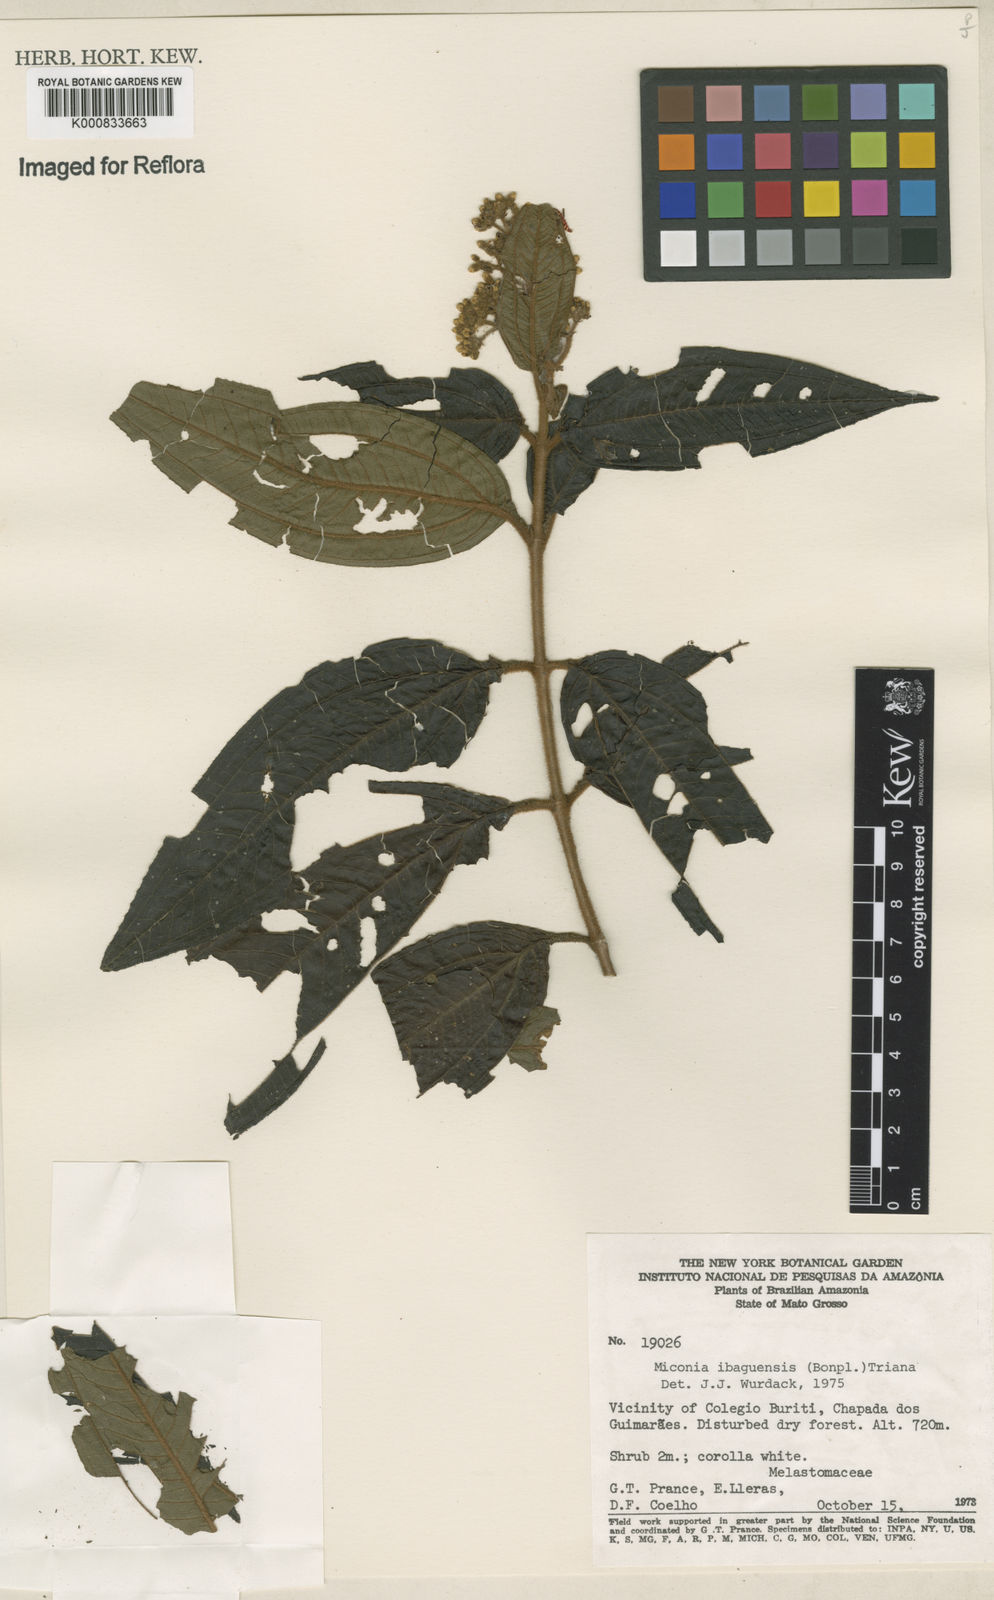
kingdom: Plantae
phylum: Tracheophyta
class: Magnoliopsida
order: Myrtales
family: Melastomataceae
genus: Miconia
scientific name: Miconia ibaguensis
